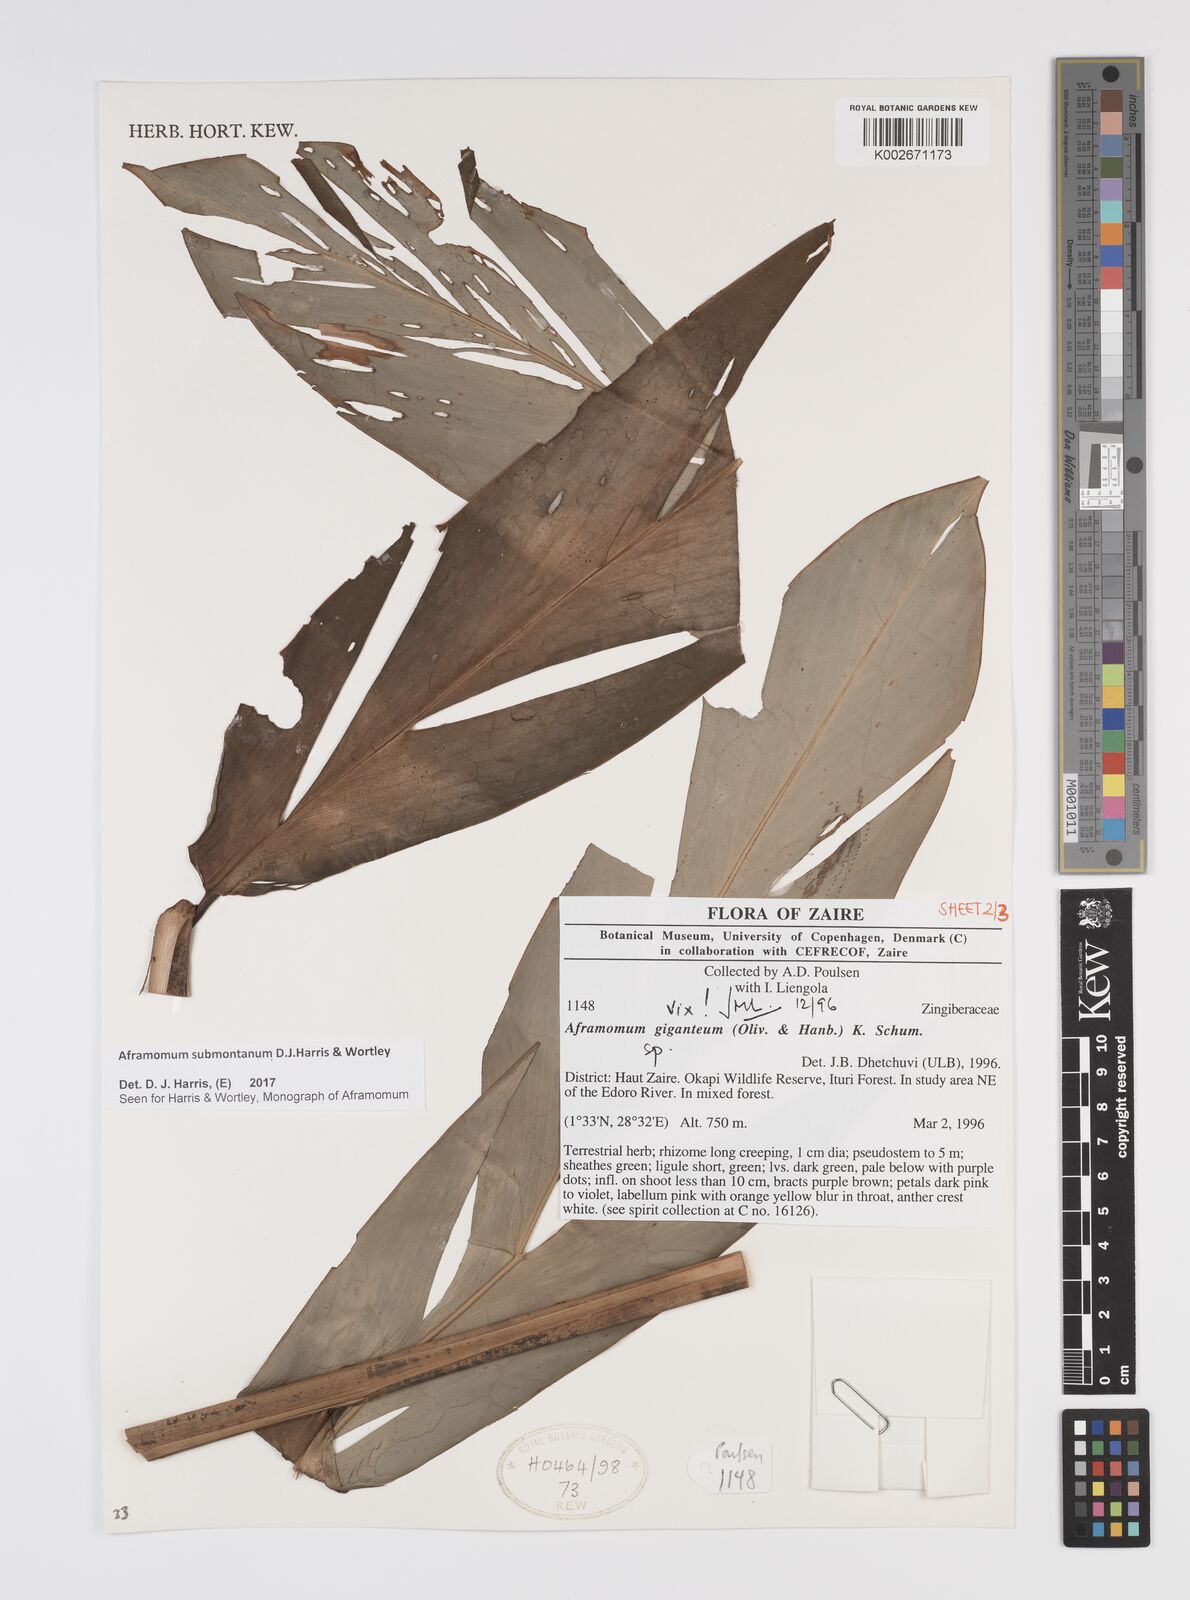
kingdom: Plantae
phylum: Tracheophyta
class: Liliopsida
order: Zingiberales
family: Zingiberaceae
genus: Aframomum
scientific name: Aframomum submontanum
